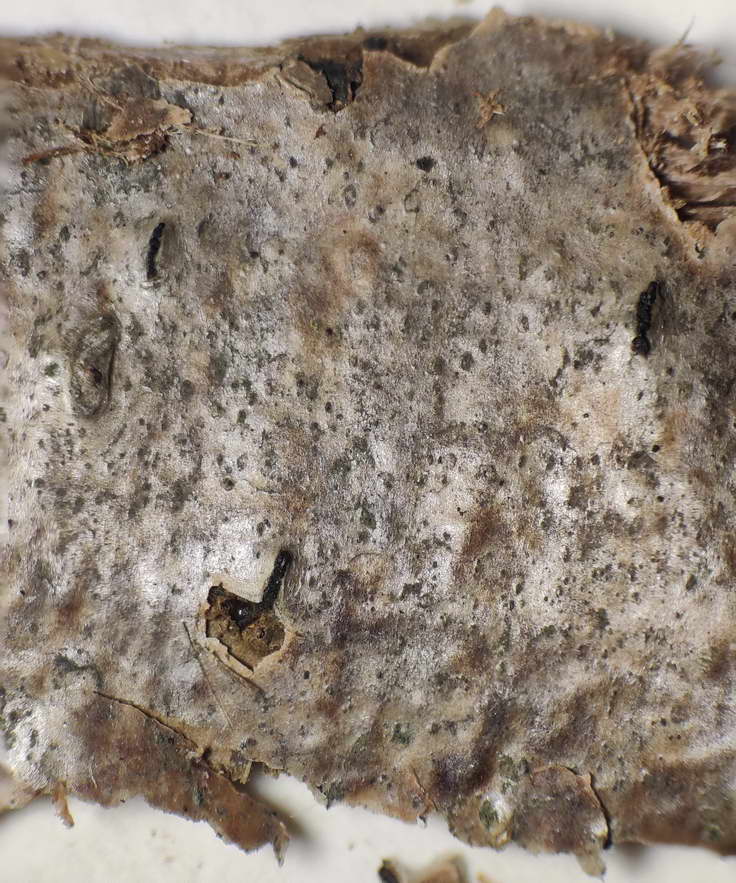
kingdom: Fungi
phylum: Ascomycota
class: Sordariomycetes
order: Diaporthales
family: Gnomoniaceae
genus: Cryptosporella
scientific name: Cryptosporella corylina
